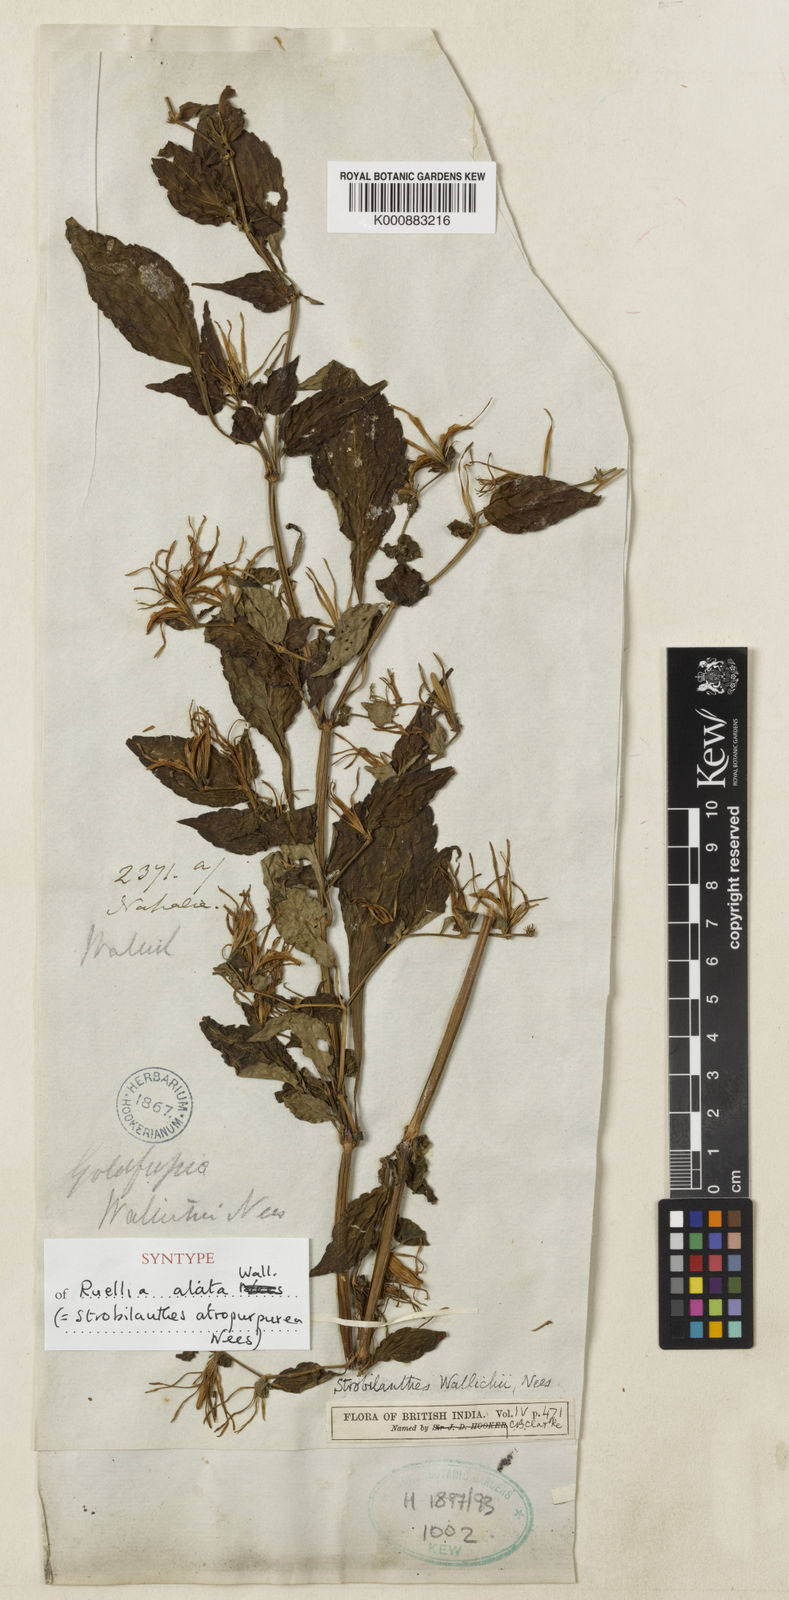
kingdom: Plantae
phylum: Tracheophyta
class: Magnoliopsida
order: Lamiales
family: Acanthaceae
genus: Strobilanthes
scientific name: Strobilanthes wallichii
